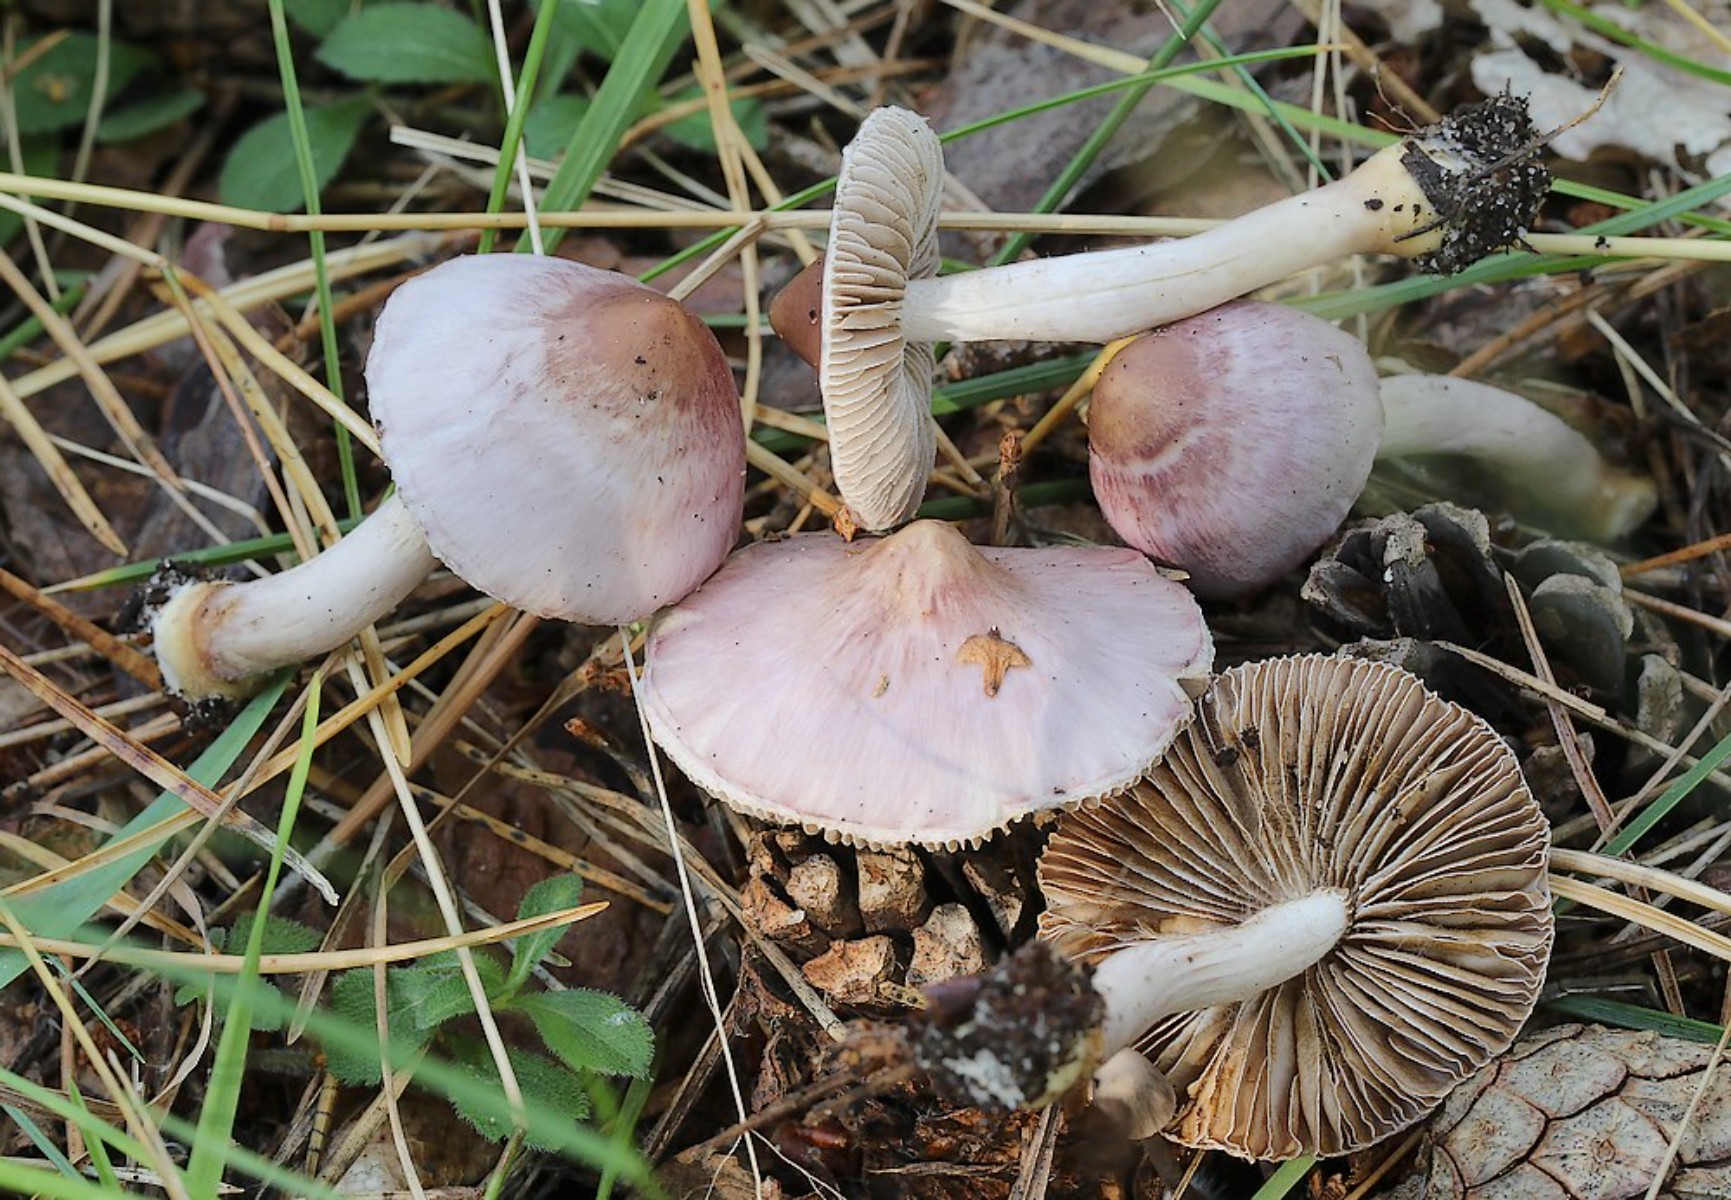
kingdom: Fungi
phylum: Basidiomycota
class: Agaricomycetes
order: Agaricales
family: Mycenaceae
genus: Mycena
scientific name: Mycena rosea
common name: rosa huesvamp
